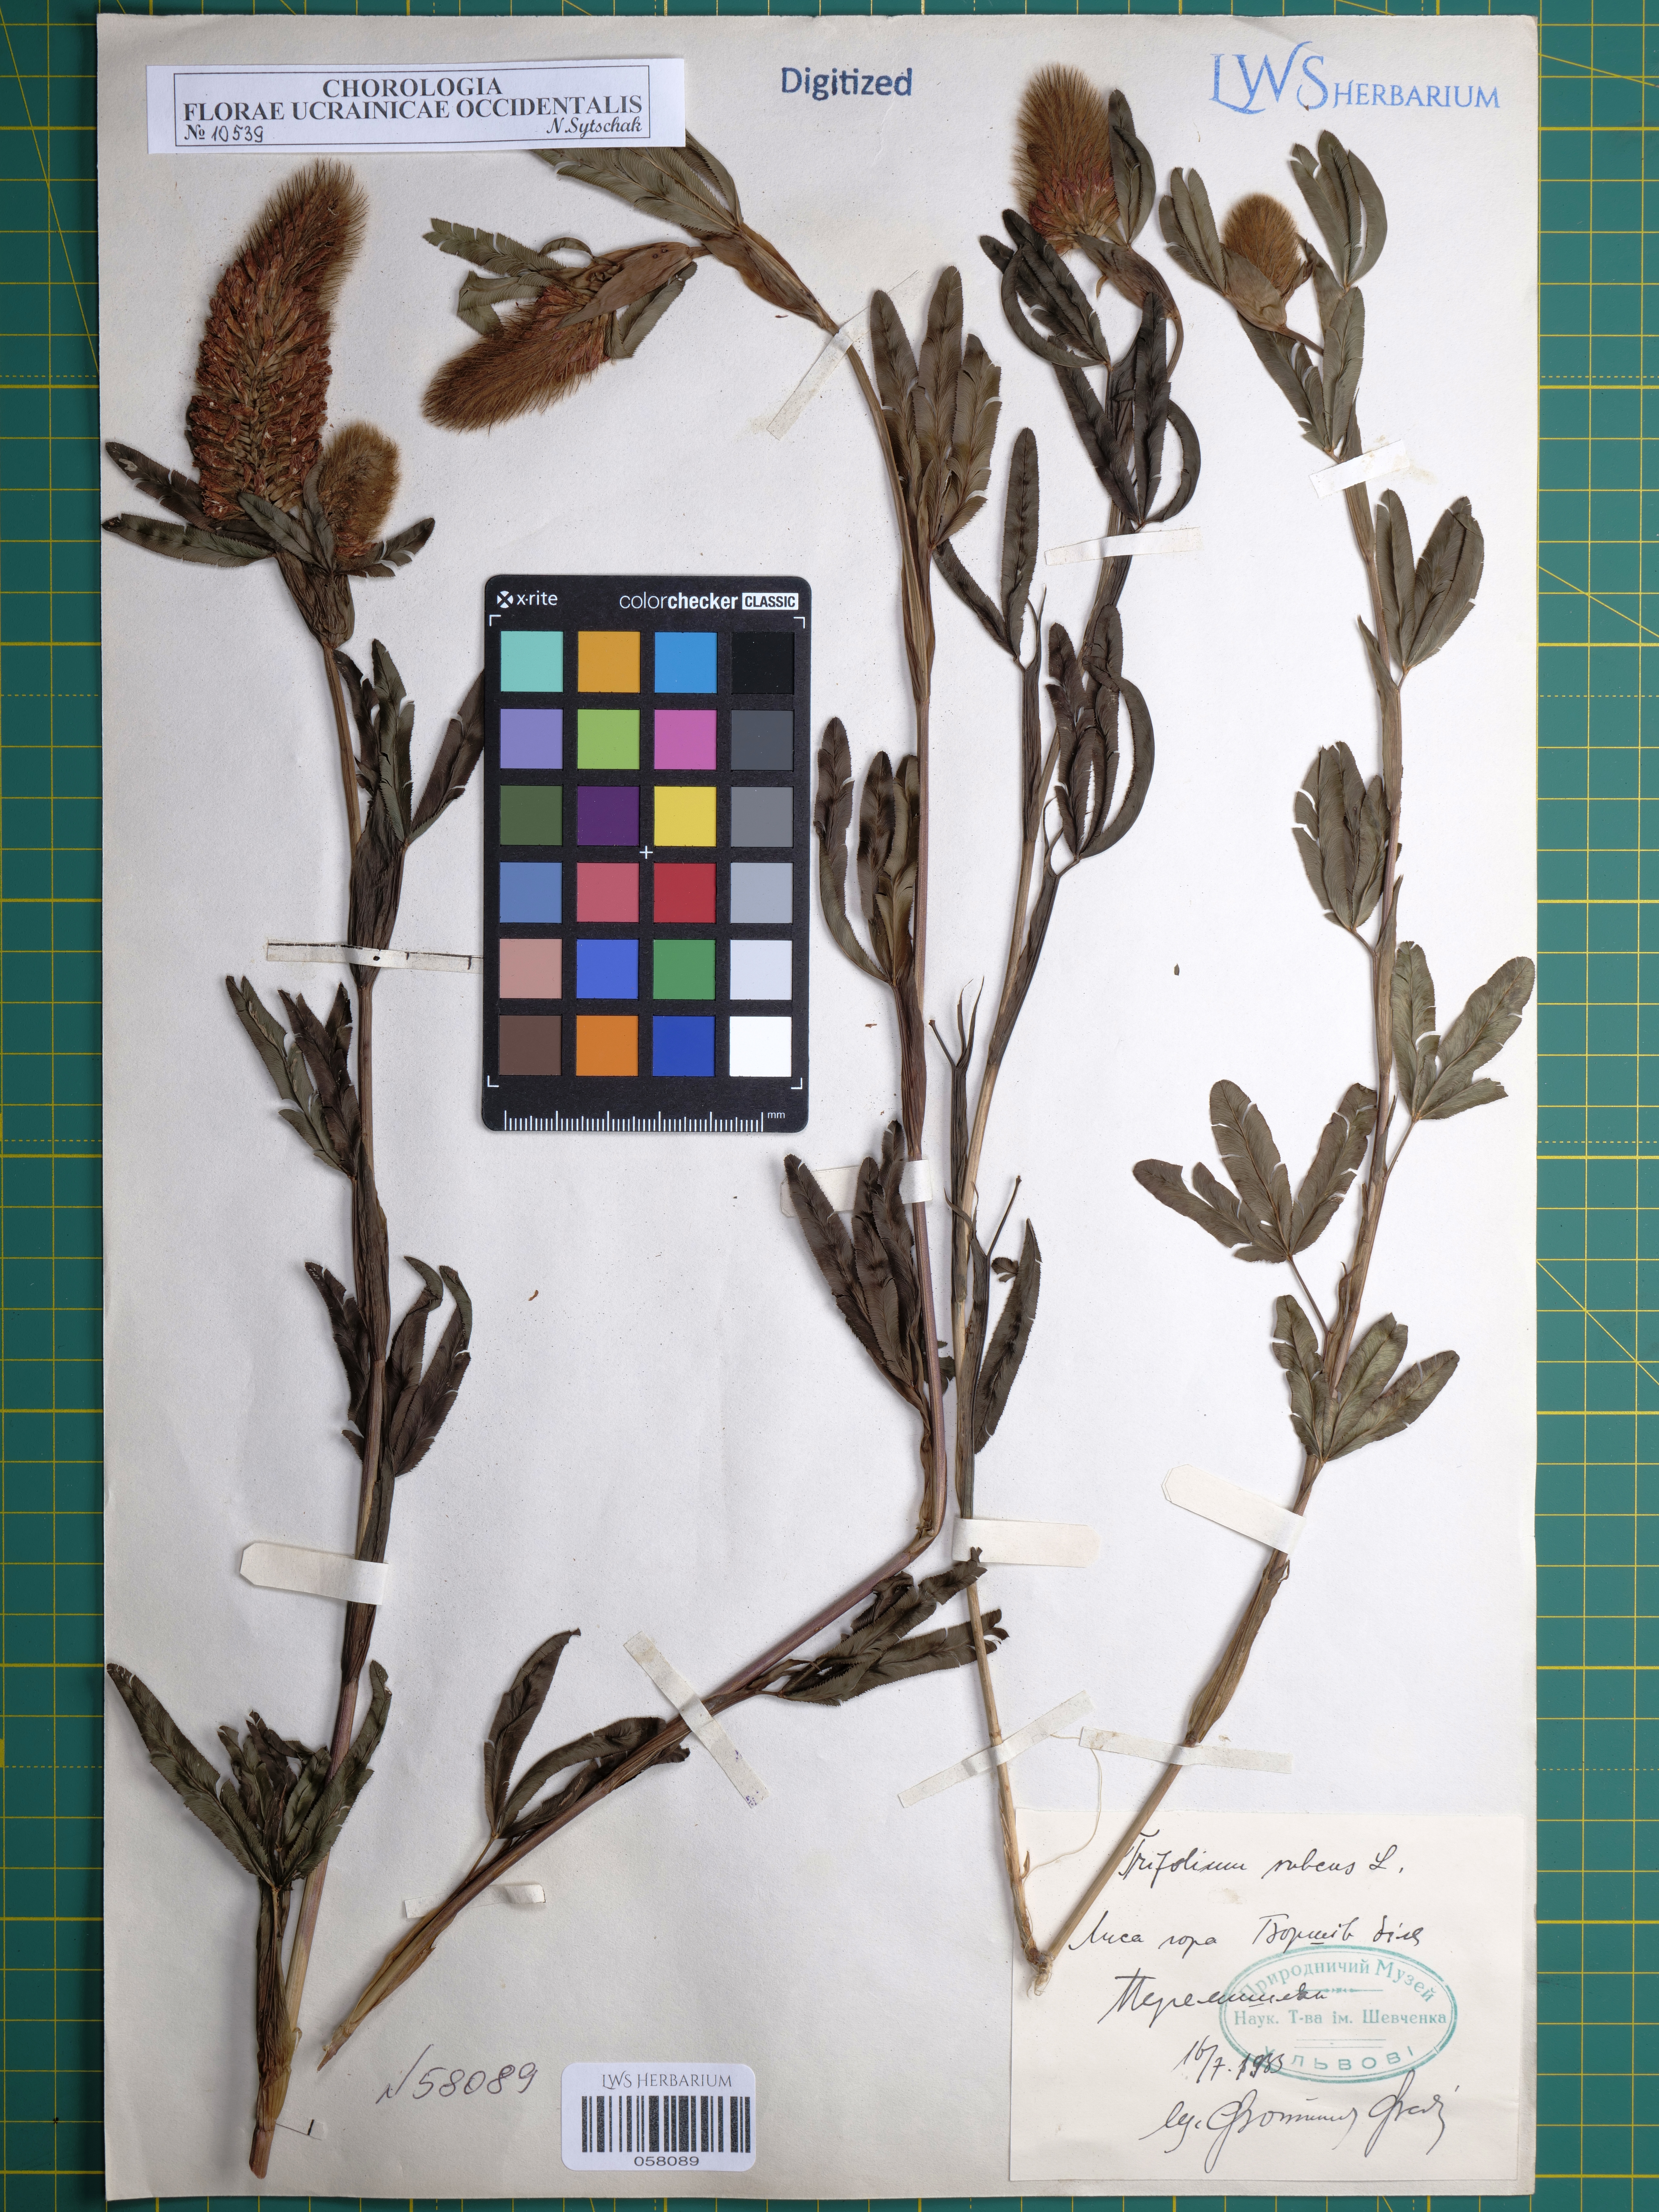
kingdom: Plantae
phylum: Tracheophyta
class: Magnoliopsida
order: Fabales
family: Fabaceae
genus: Trifolium
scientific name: Trifolium rubens
